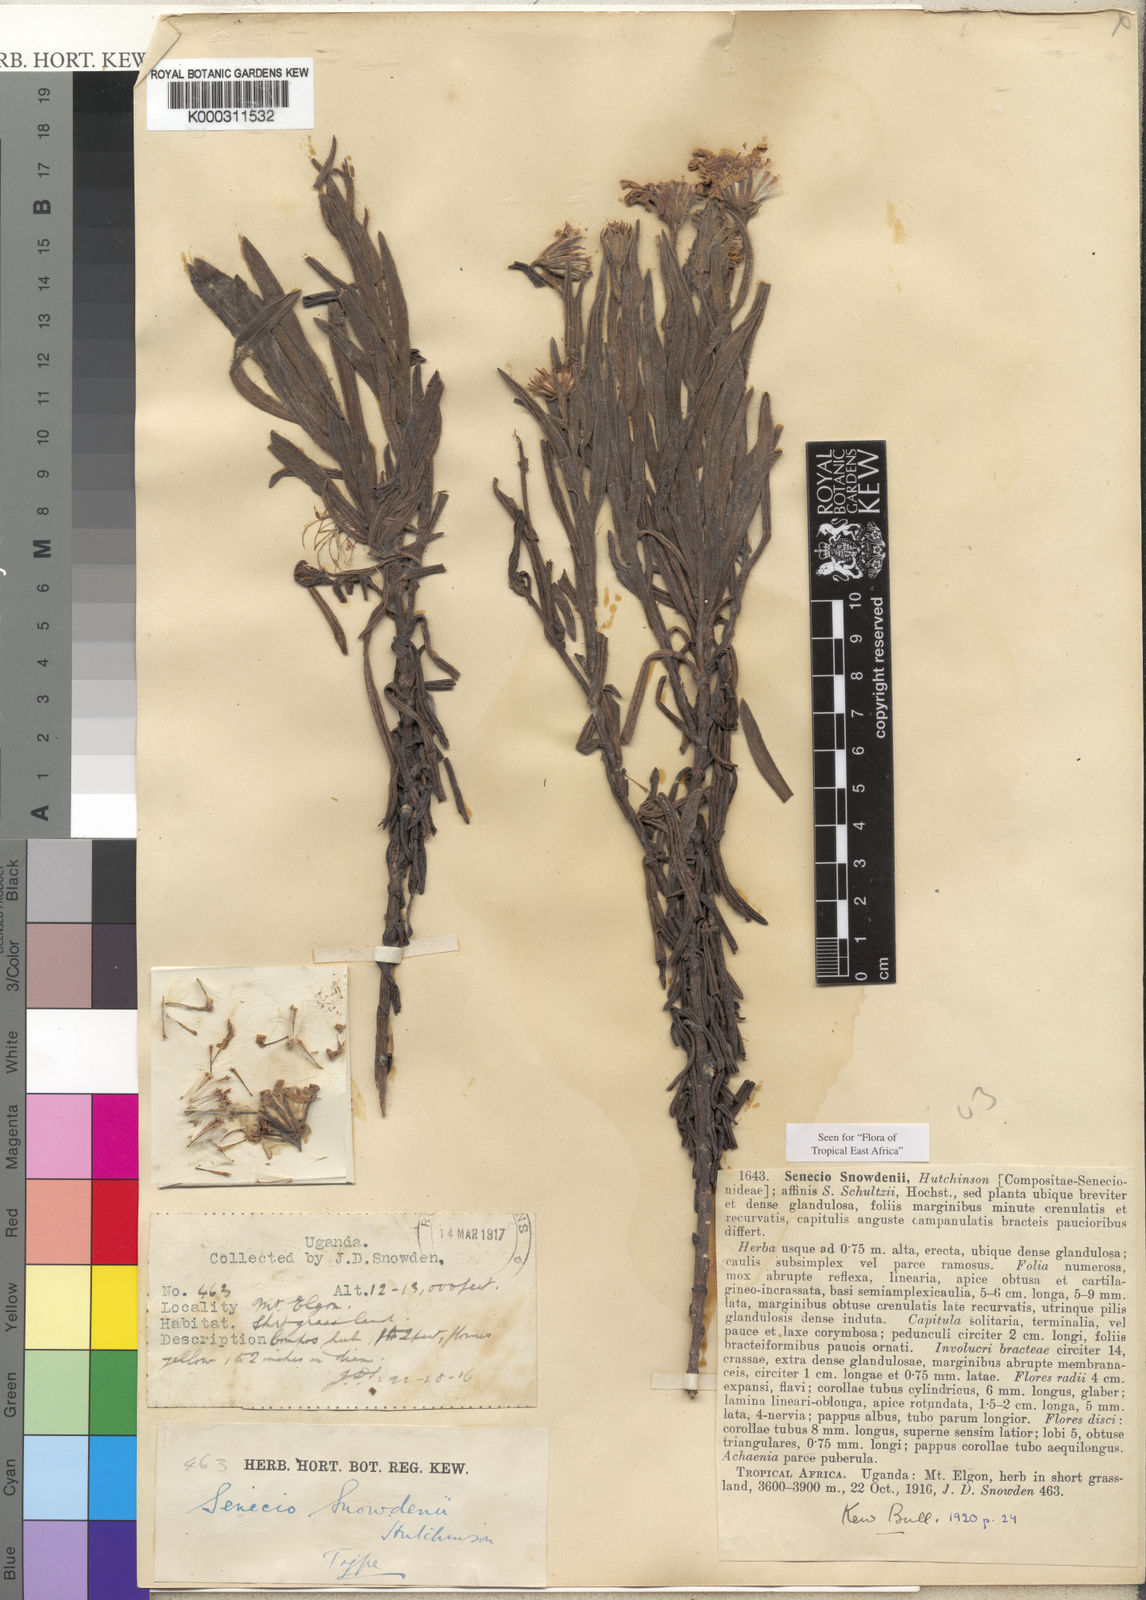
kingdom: Plantae
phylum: Tracheophyta
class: Magnoliopsida
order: Asterales
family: Asteraceae
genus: Senecio
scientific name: Senecio snowdenii
